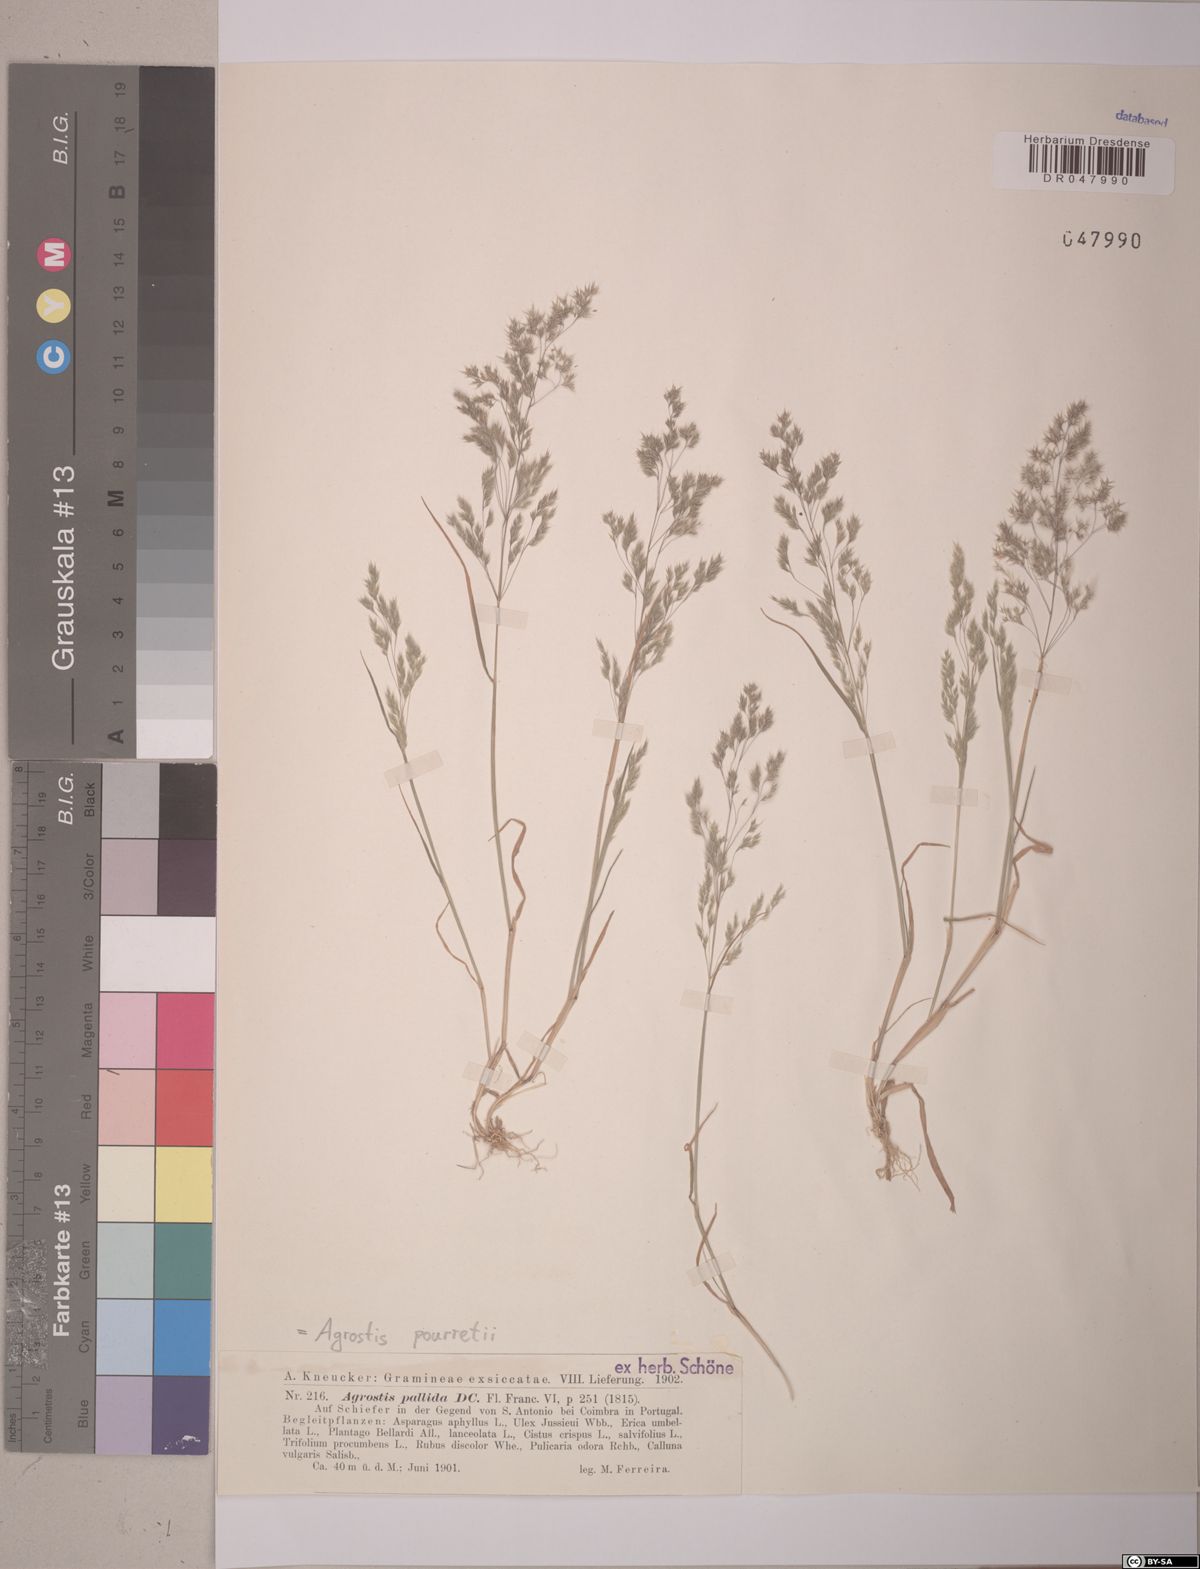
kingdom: Plantae
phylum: Tracheophyta
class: Liliopsida
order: Poales
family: Poaceae
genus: Agrostis
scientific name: Agrostis pourretii
